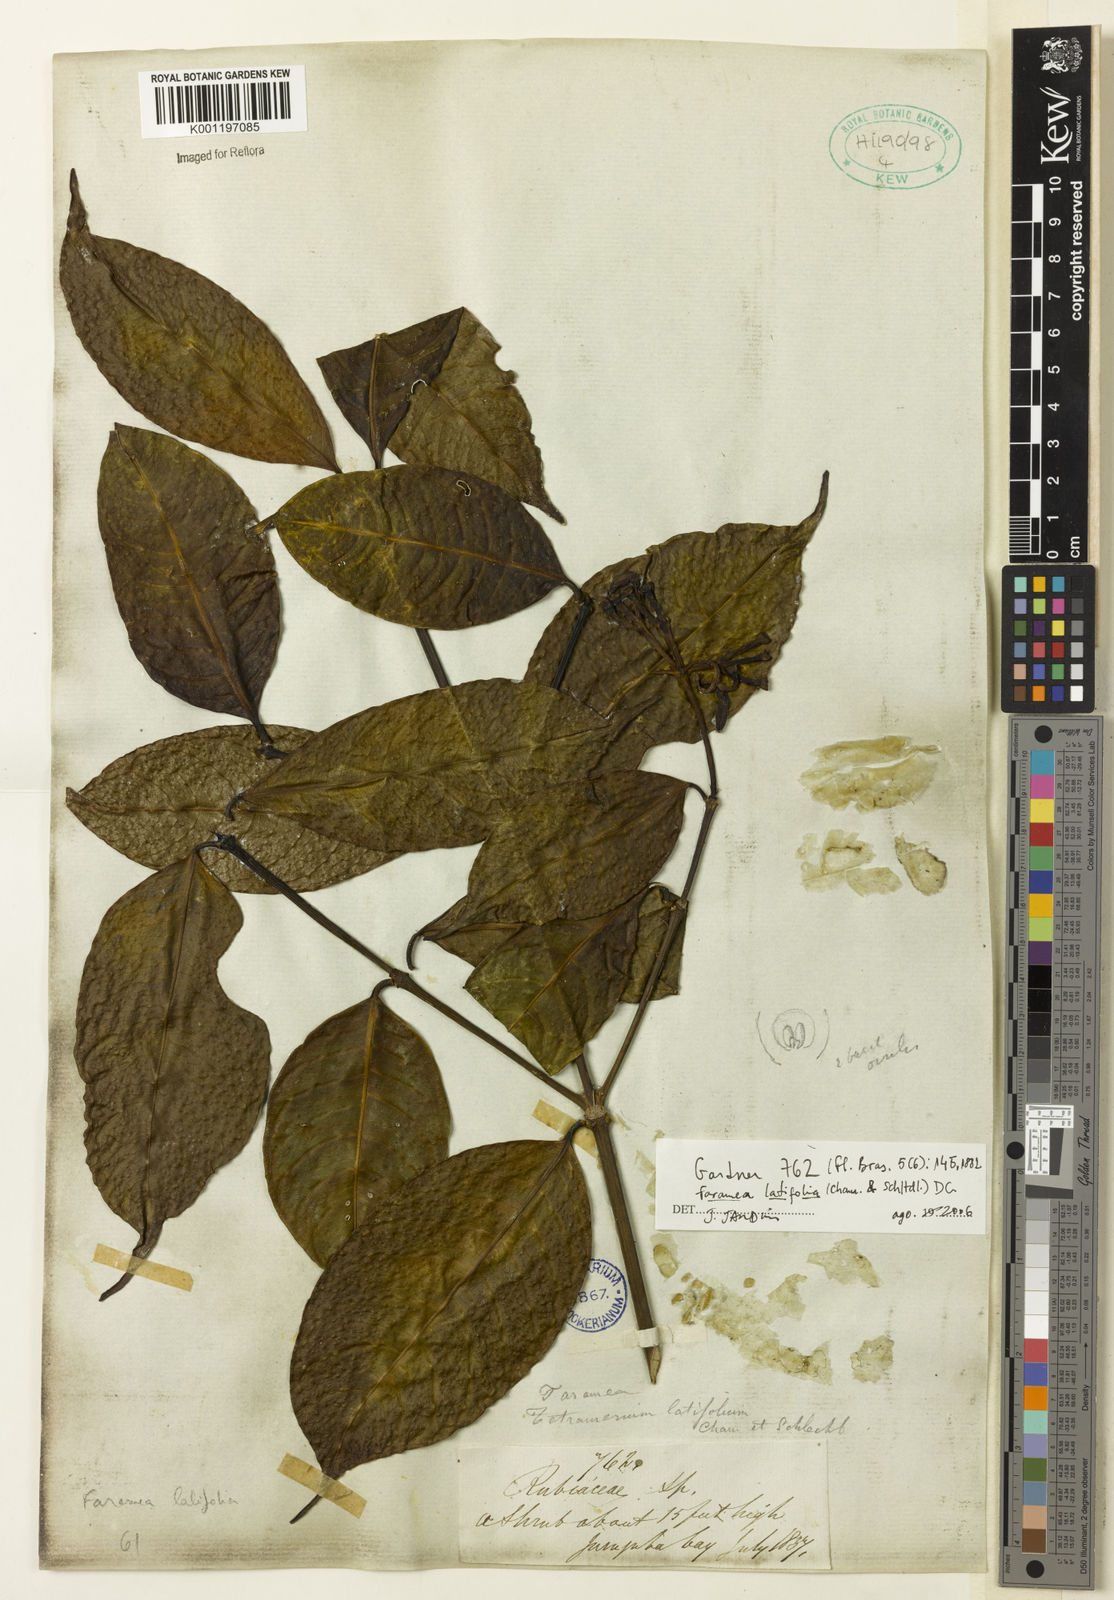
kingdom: Plantae
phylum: Tracheophyta
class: Magnoliopsida
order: Gentianales
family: Rubiaceae
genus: Faramea
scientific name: Faramea latifolia
